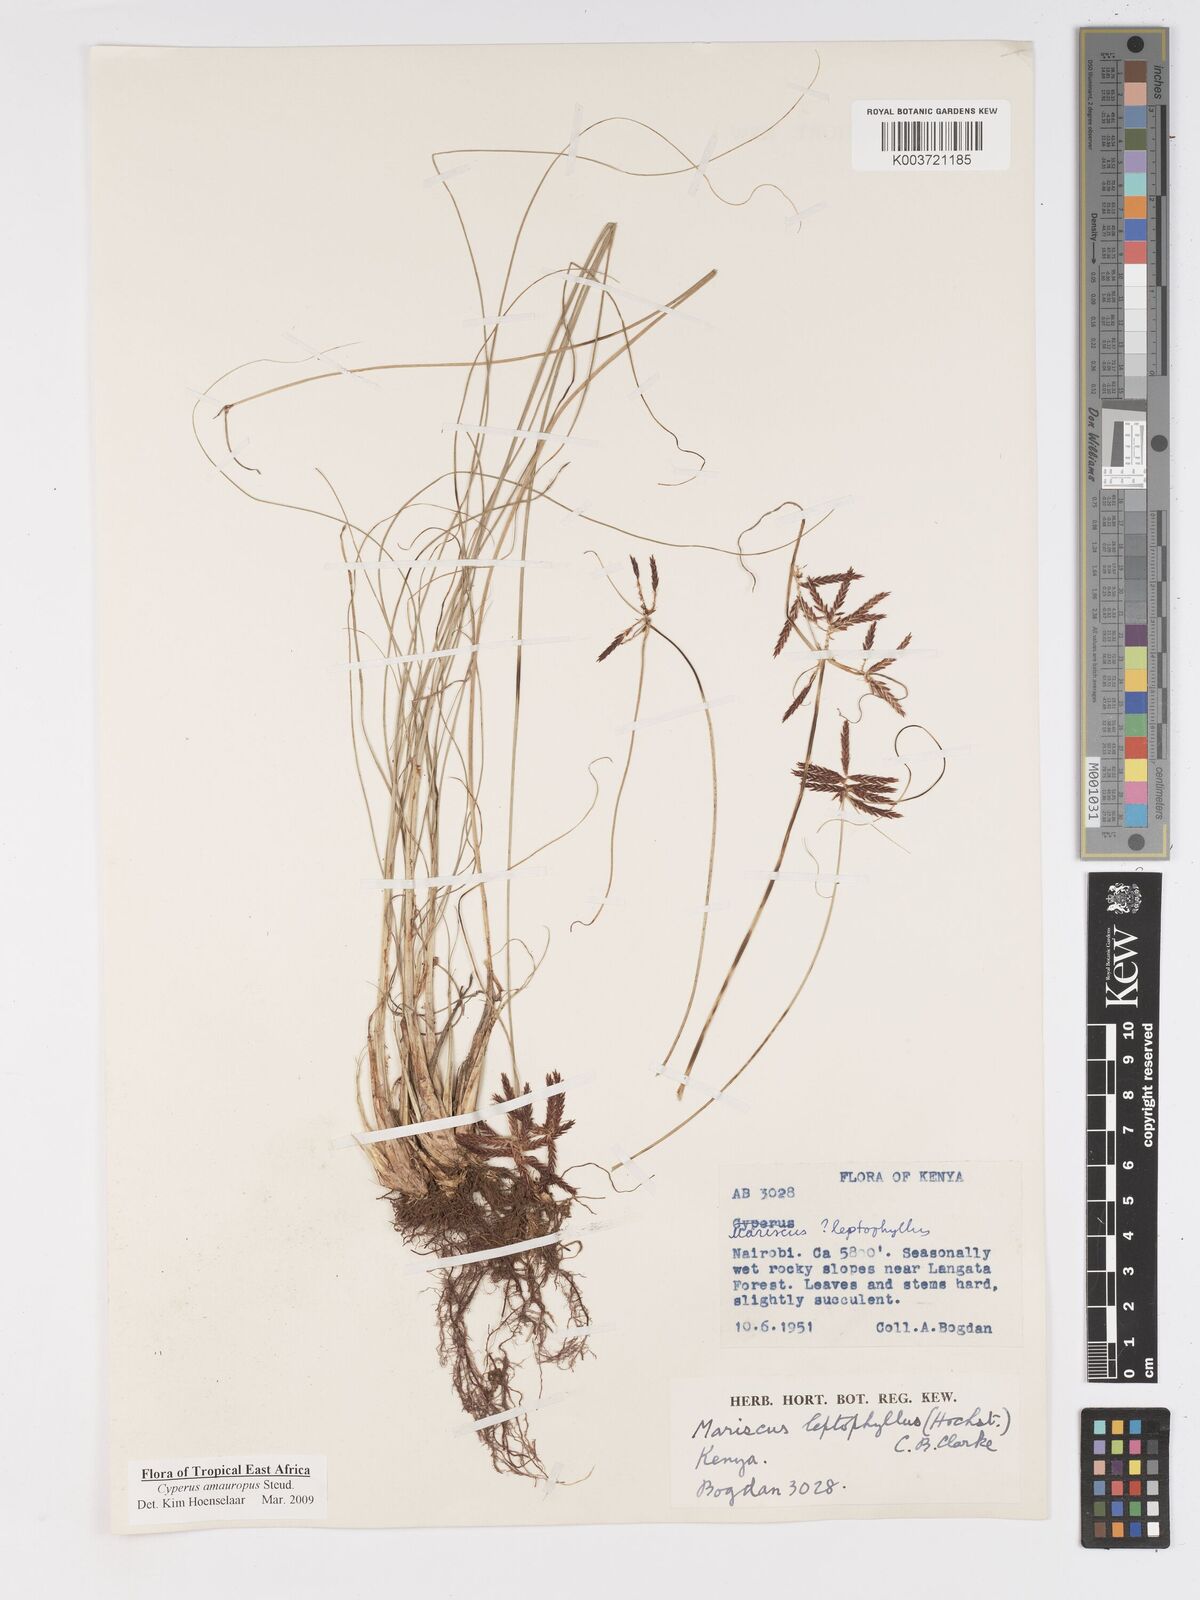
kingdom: Plantae
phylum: Tracheophyta
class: Liliopsida
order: Poales
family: Cyperaceae
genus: Cyperus
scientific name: Cyperus amauropus
